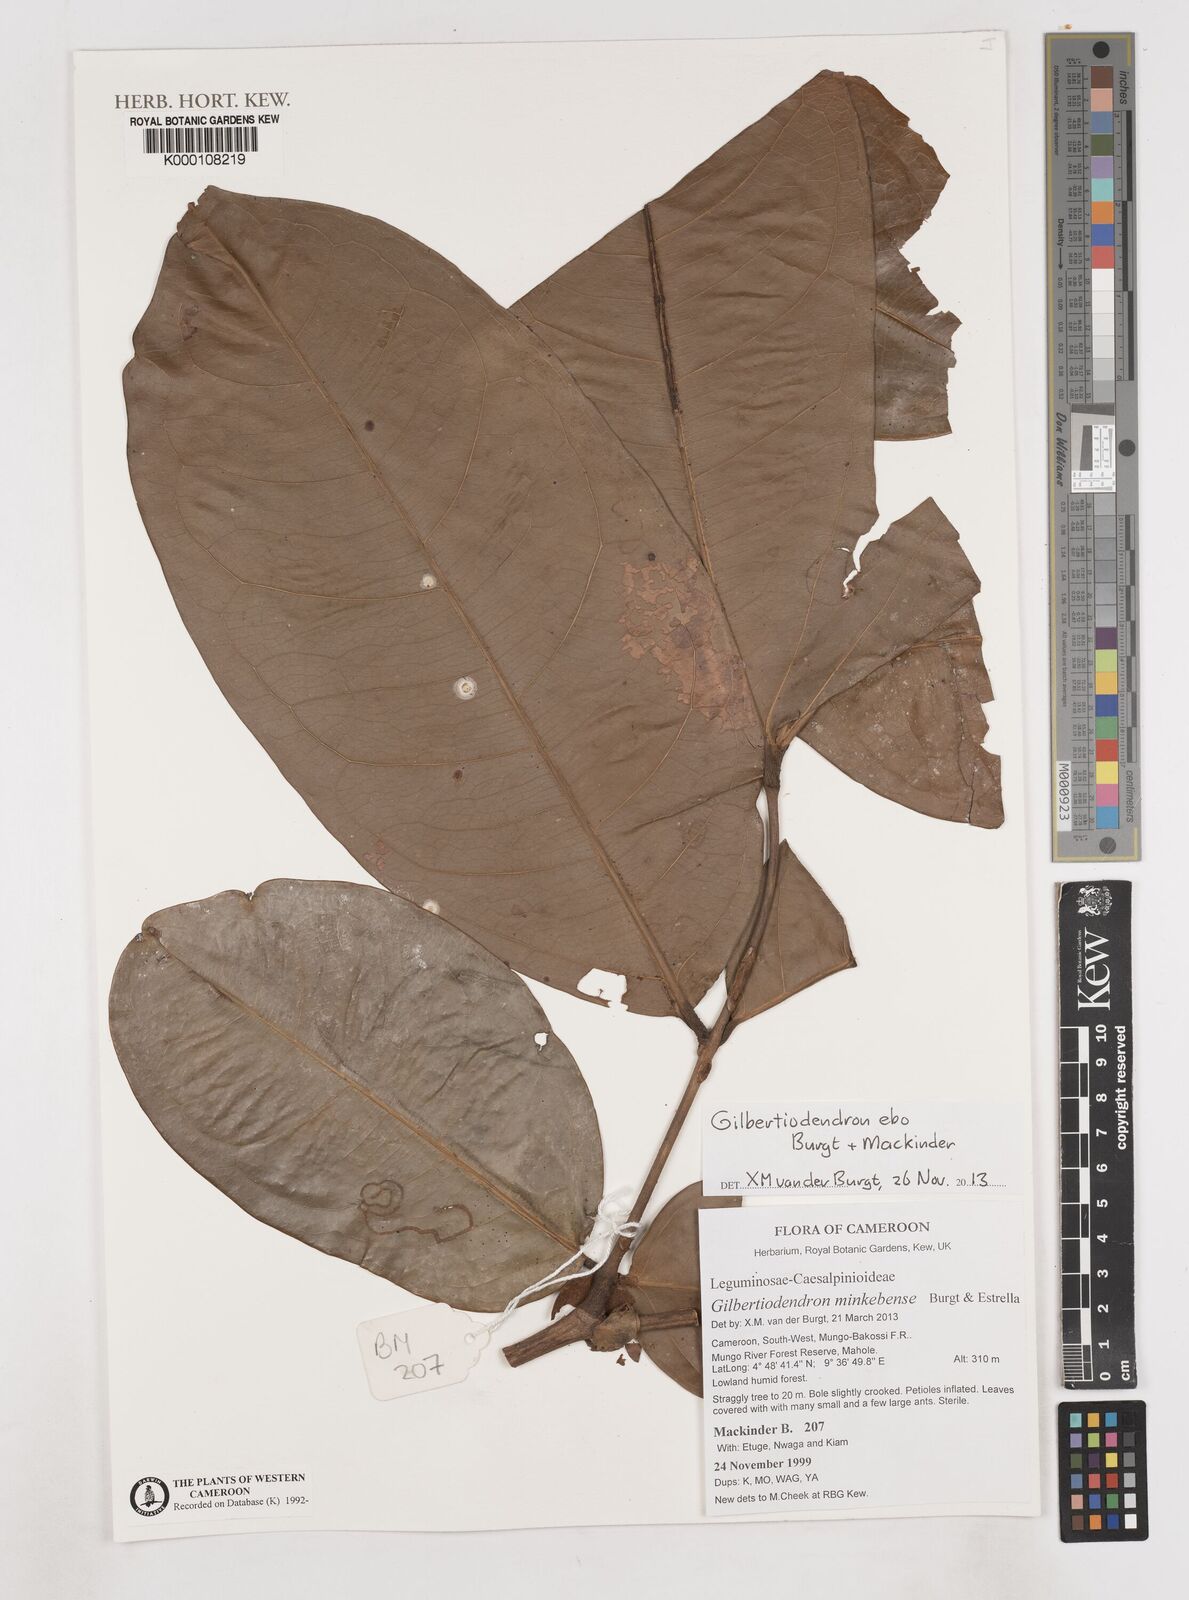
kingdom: Plantae
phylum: Tracheophyta
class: Magnoliopsida
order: Fabales
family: Fabaceae
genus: Gilbertiodendron
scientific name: Gilbertiodendron ebo
